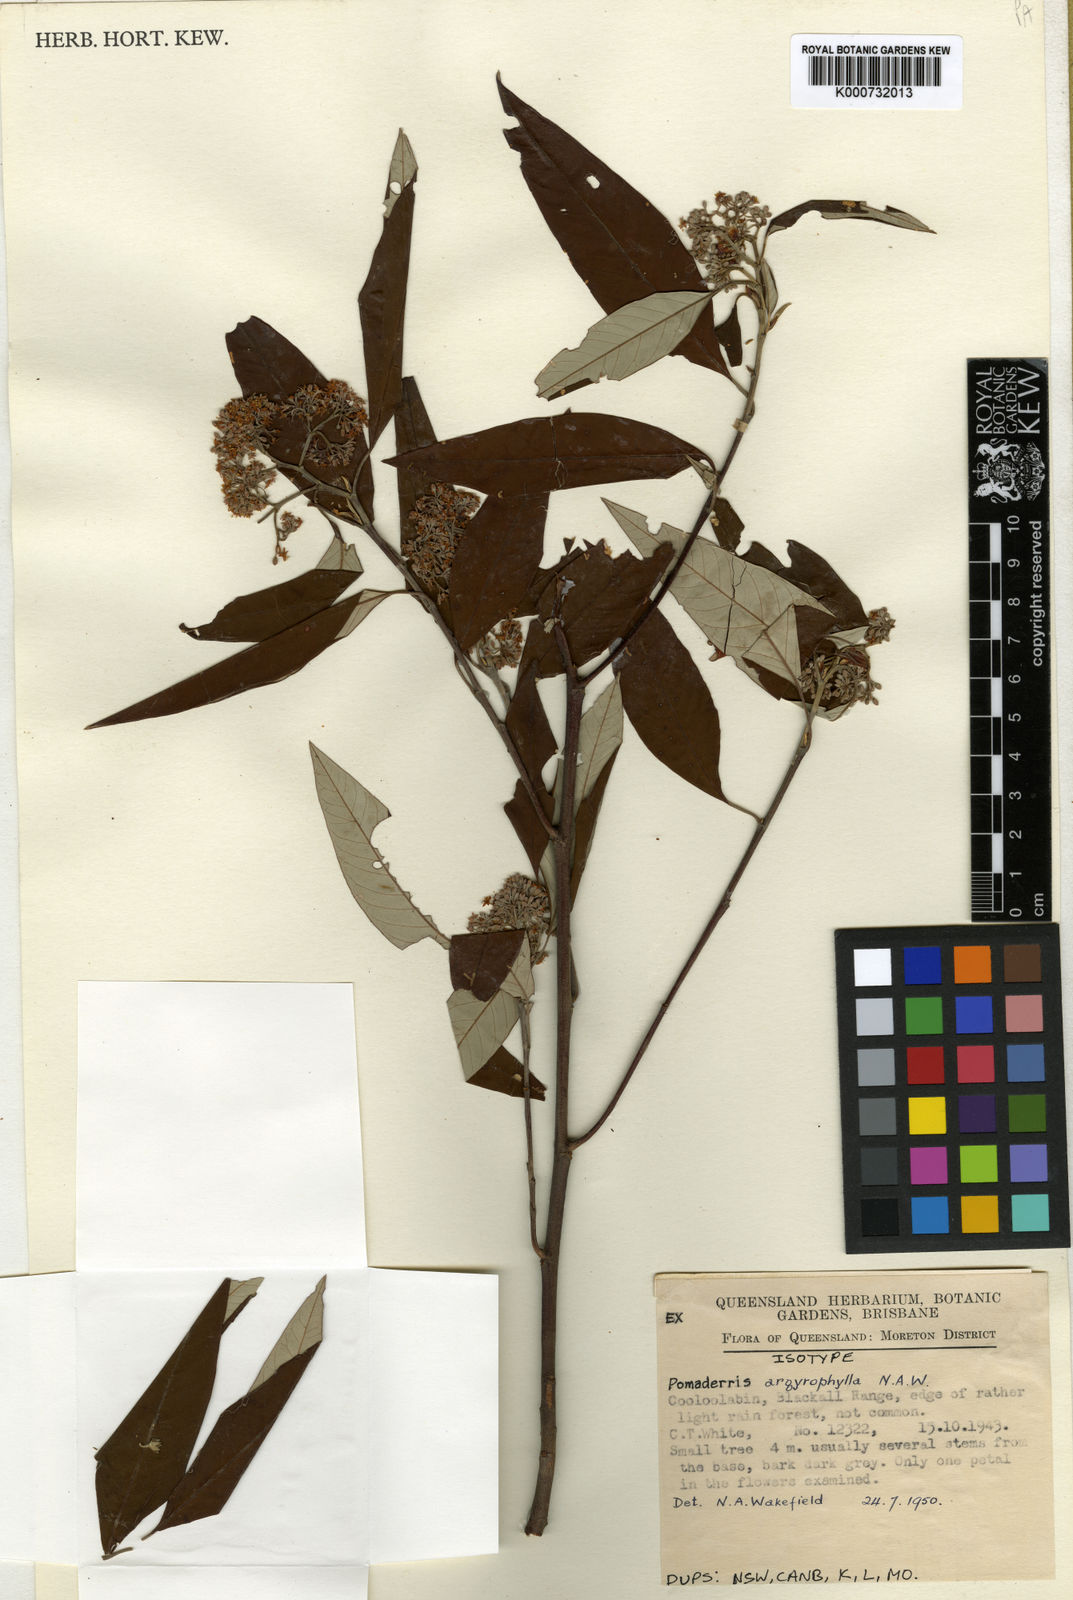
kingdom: Plantae
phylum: Tracheophyta
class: Magnoliopsida
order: Rosales
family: Rhamnaceae
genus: Pomaderris
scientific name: Pomaderris argyrophylla
